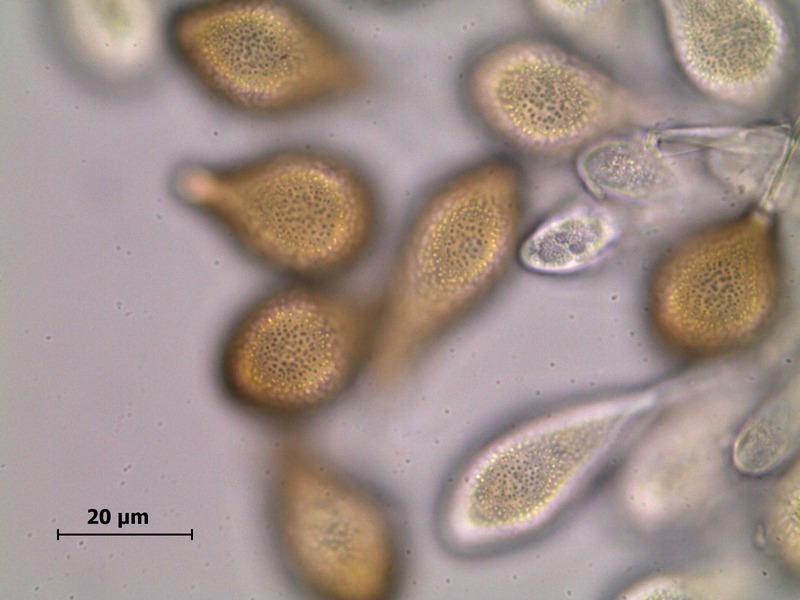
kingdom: Fungi
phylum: Basidiomycota
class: Pucciniomycetes
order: Pucciniales
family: Pucciniaceae
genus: Cumminsiella
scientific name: Cumminsiella mirabilissima
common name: Mahonia rust
